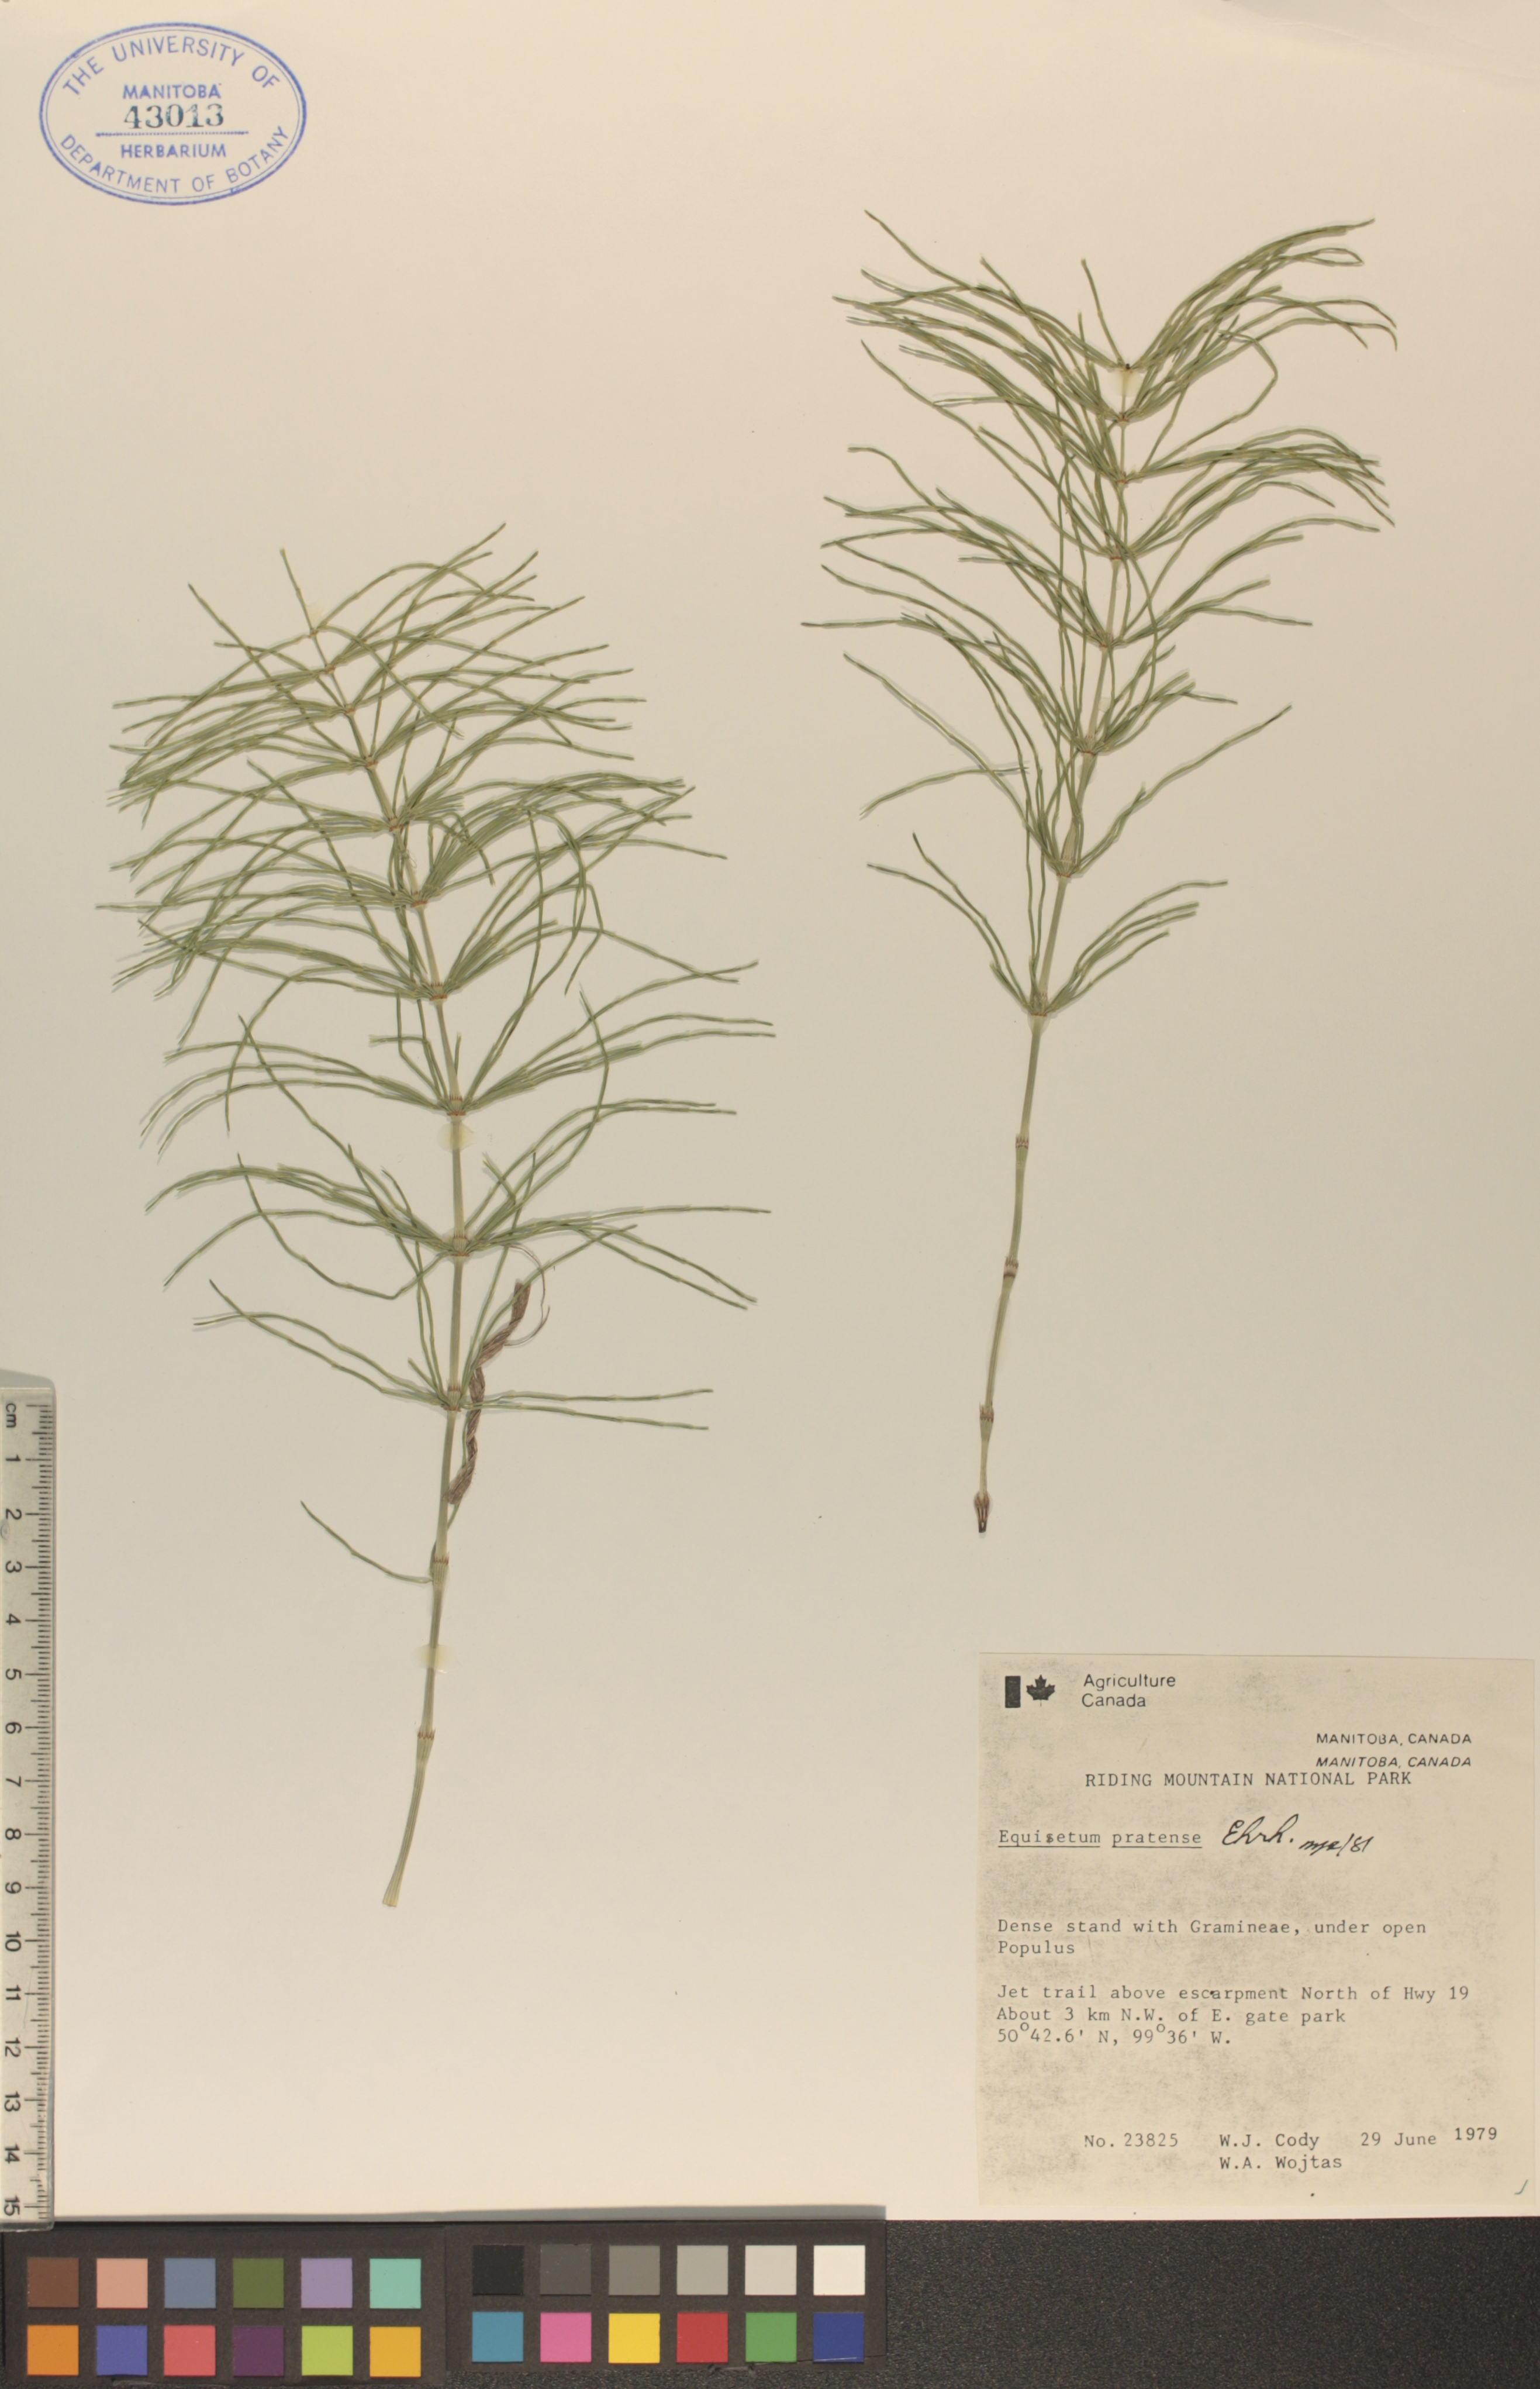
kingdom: Plantae
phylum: Tracheophyta
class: Polypodiopsida
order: Equisetales
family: Equisetaceae
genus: Equisetum
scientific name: Equisetum pratense
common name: Meadow horsetail
